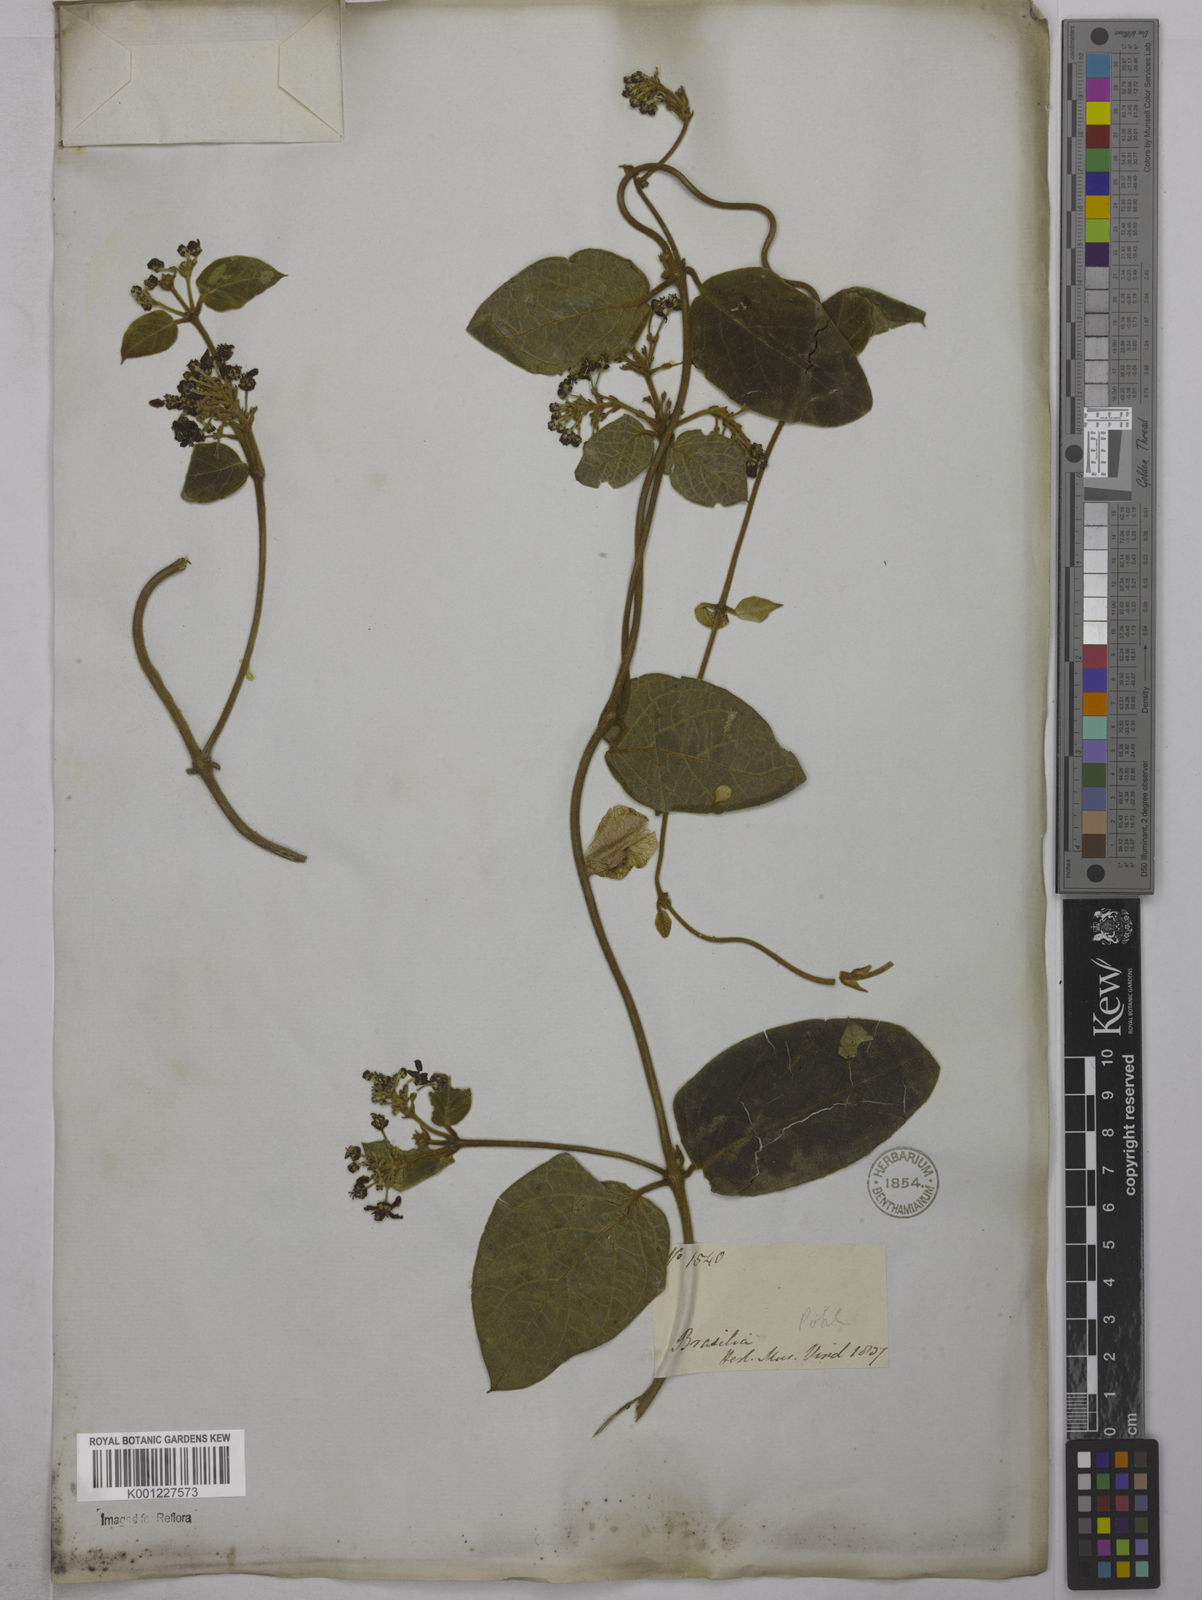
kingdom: Plantae
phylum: Tracheophyta
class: Magnoliopsida
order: Malpighiales
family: Malpighiaceae
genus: Mascagnia
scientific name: Mascagnia cordifolia
